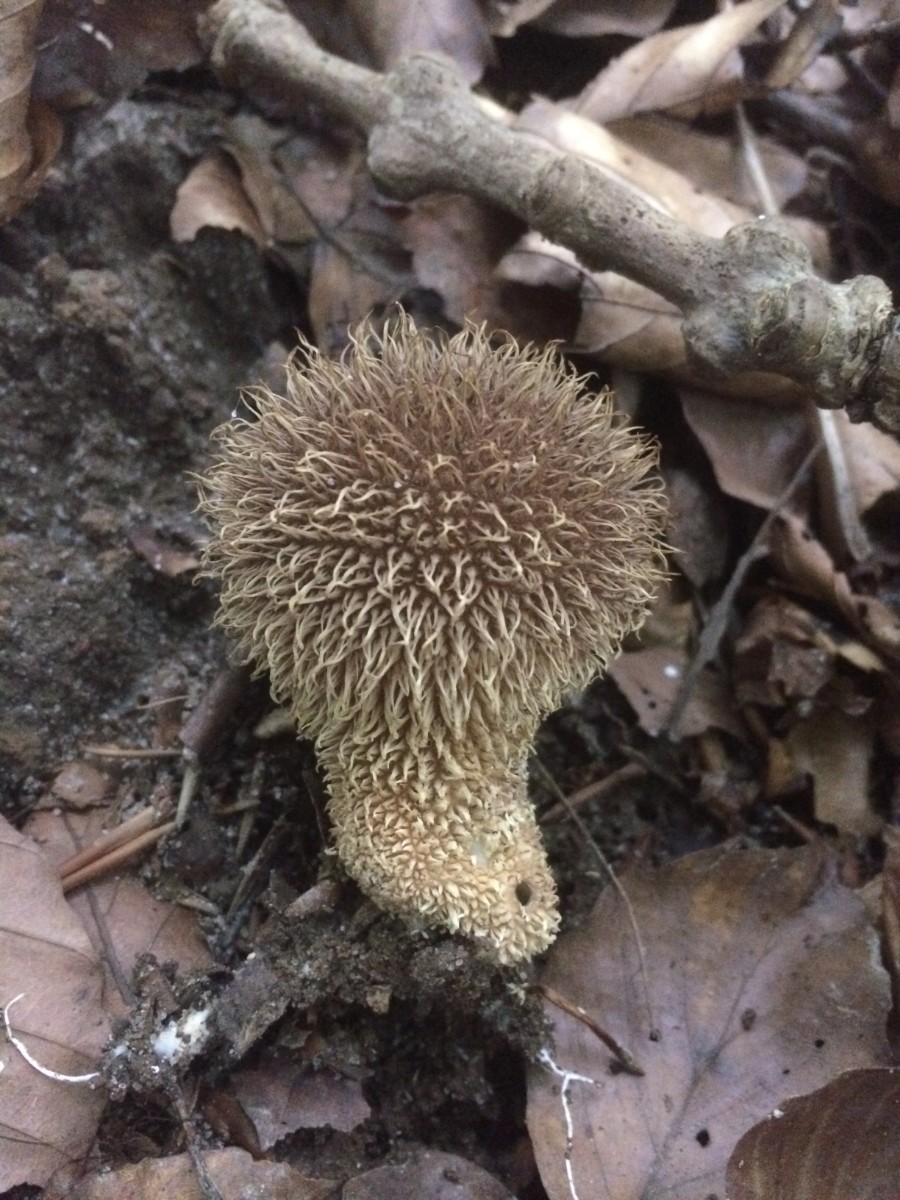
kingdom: Fungi
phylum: Basidiomycota
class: Agaricomycetes
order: Agaricales
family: Lycoperdaceae
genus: Lycoperdon
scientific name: Lycoperdon echinatum
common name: pindsvine-støvbold
